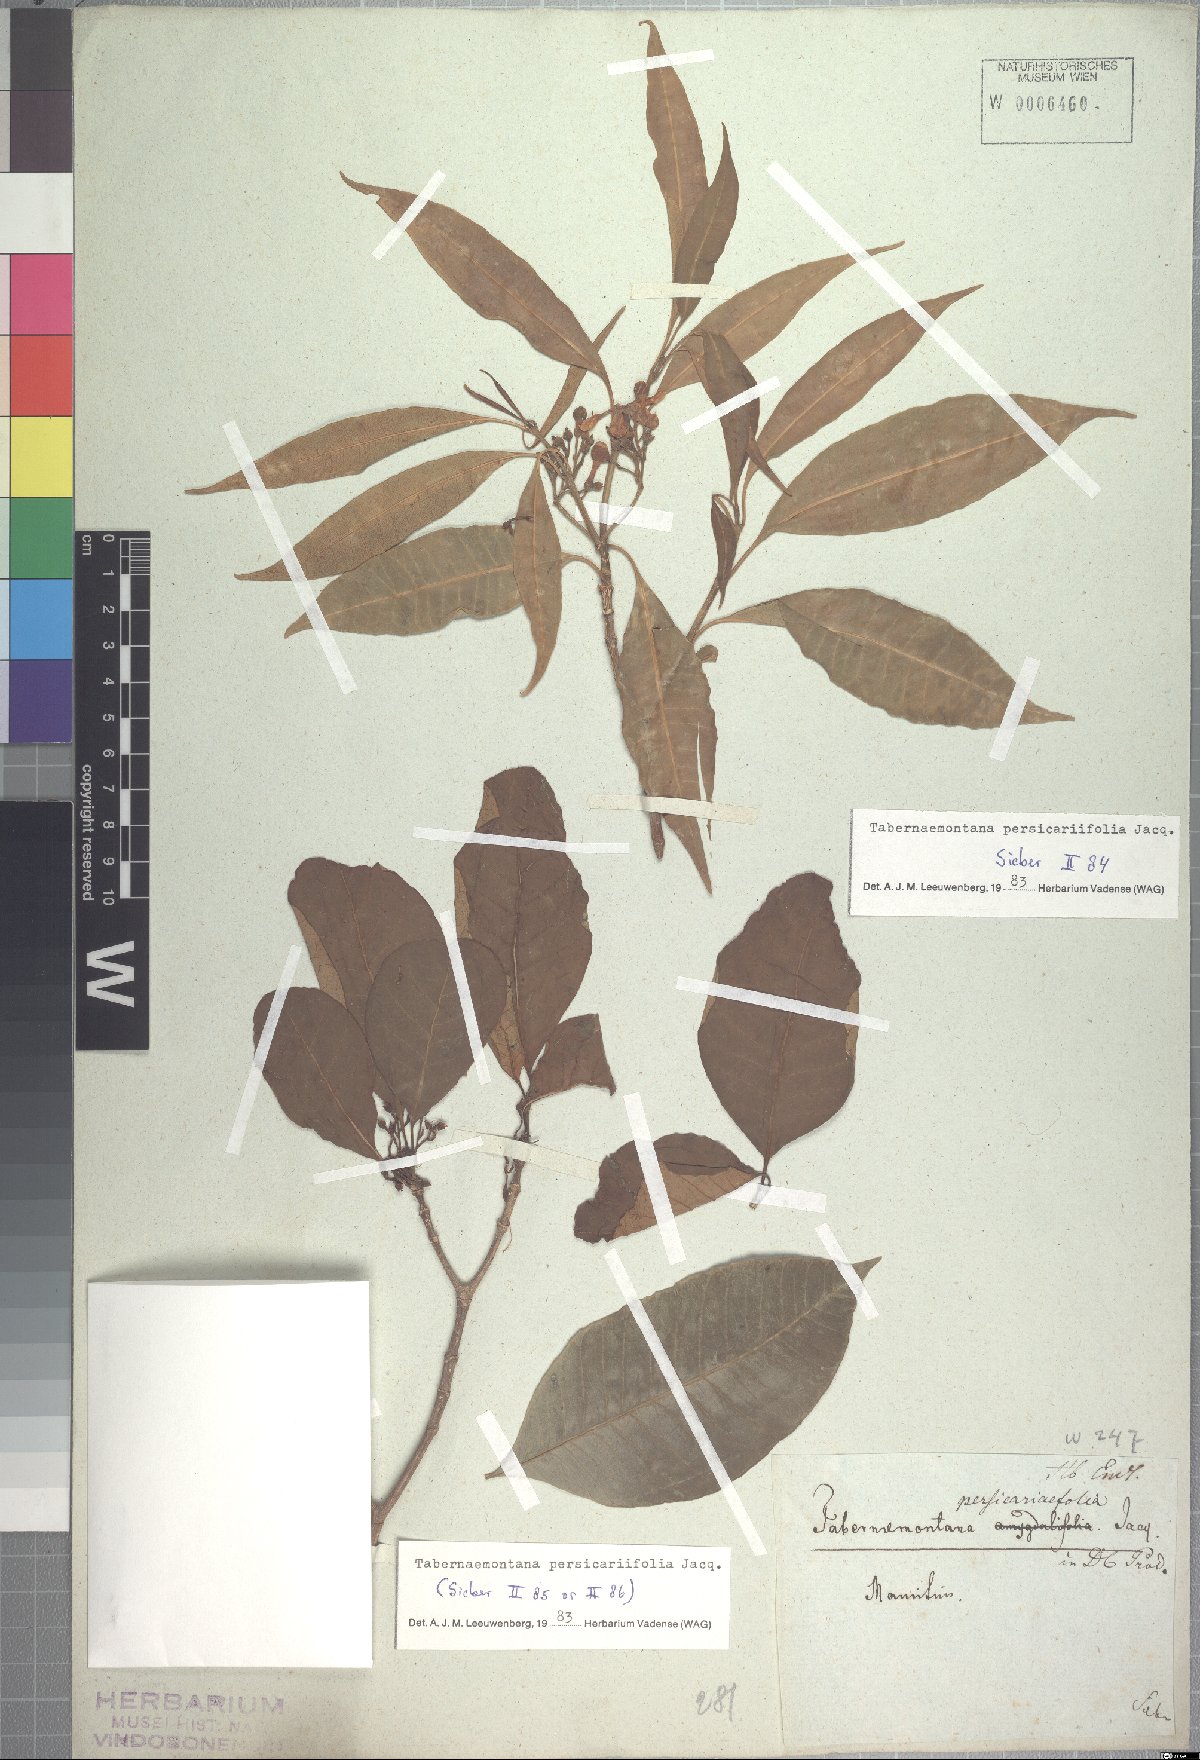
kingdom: Plantae
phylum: Tracheophyta
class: Magnoliopsida
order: Gentianales
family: Apocynaceae
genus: Tabernaemontana
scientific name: Tabernaemontana persicariifolia
